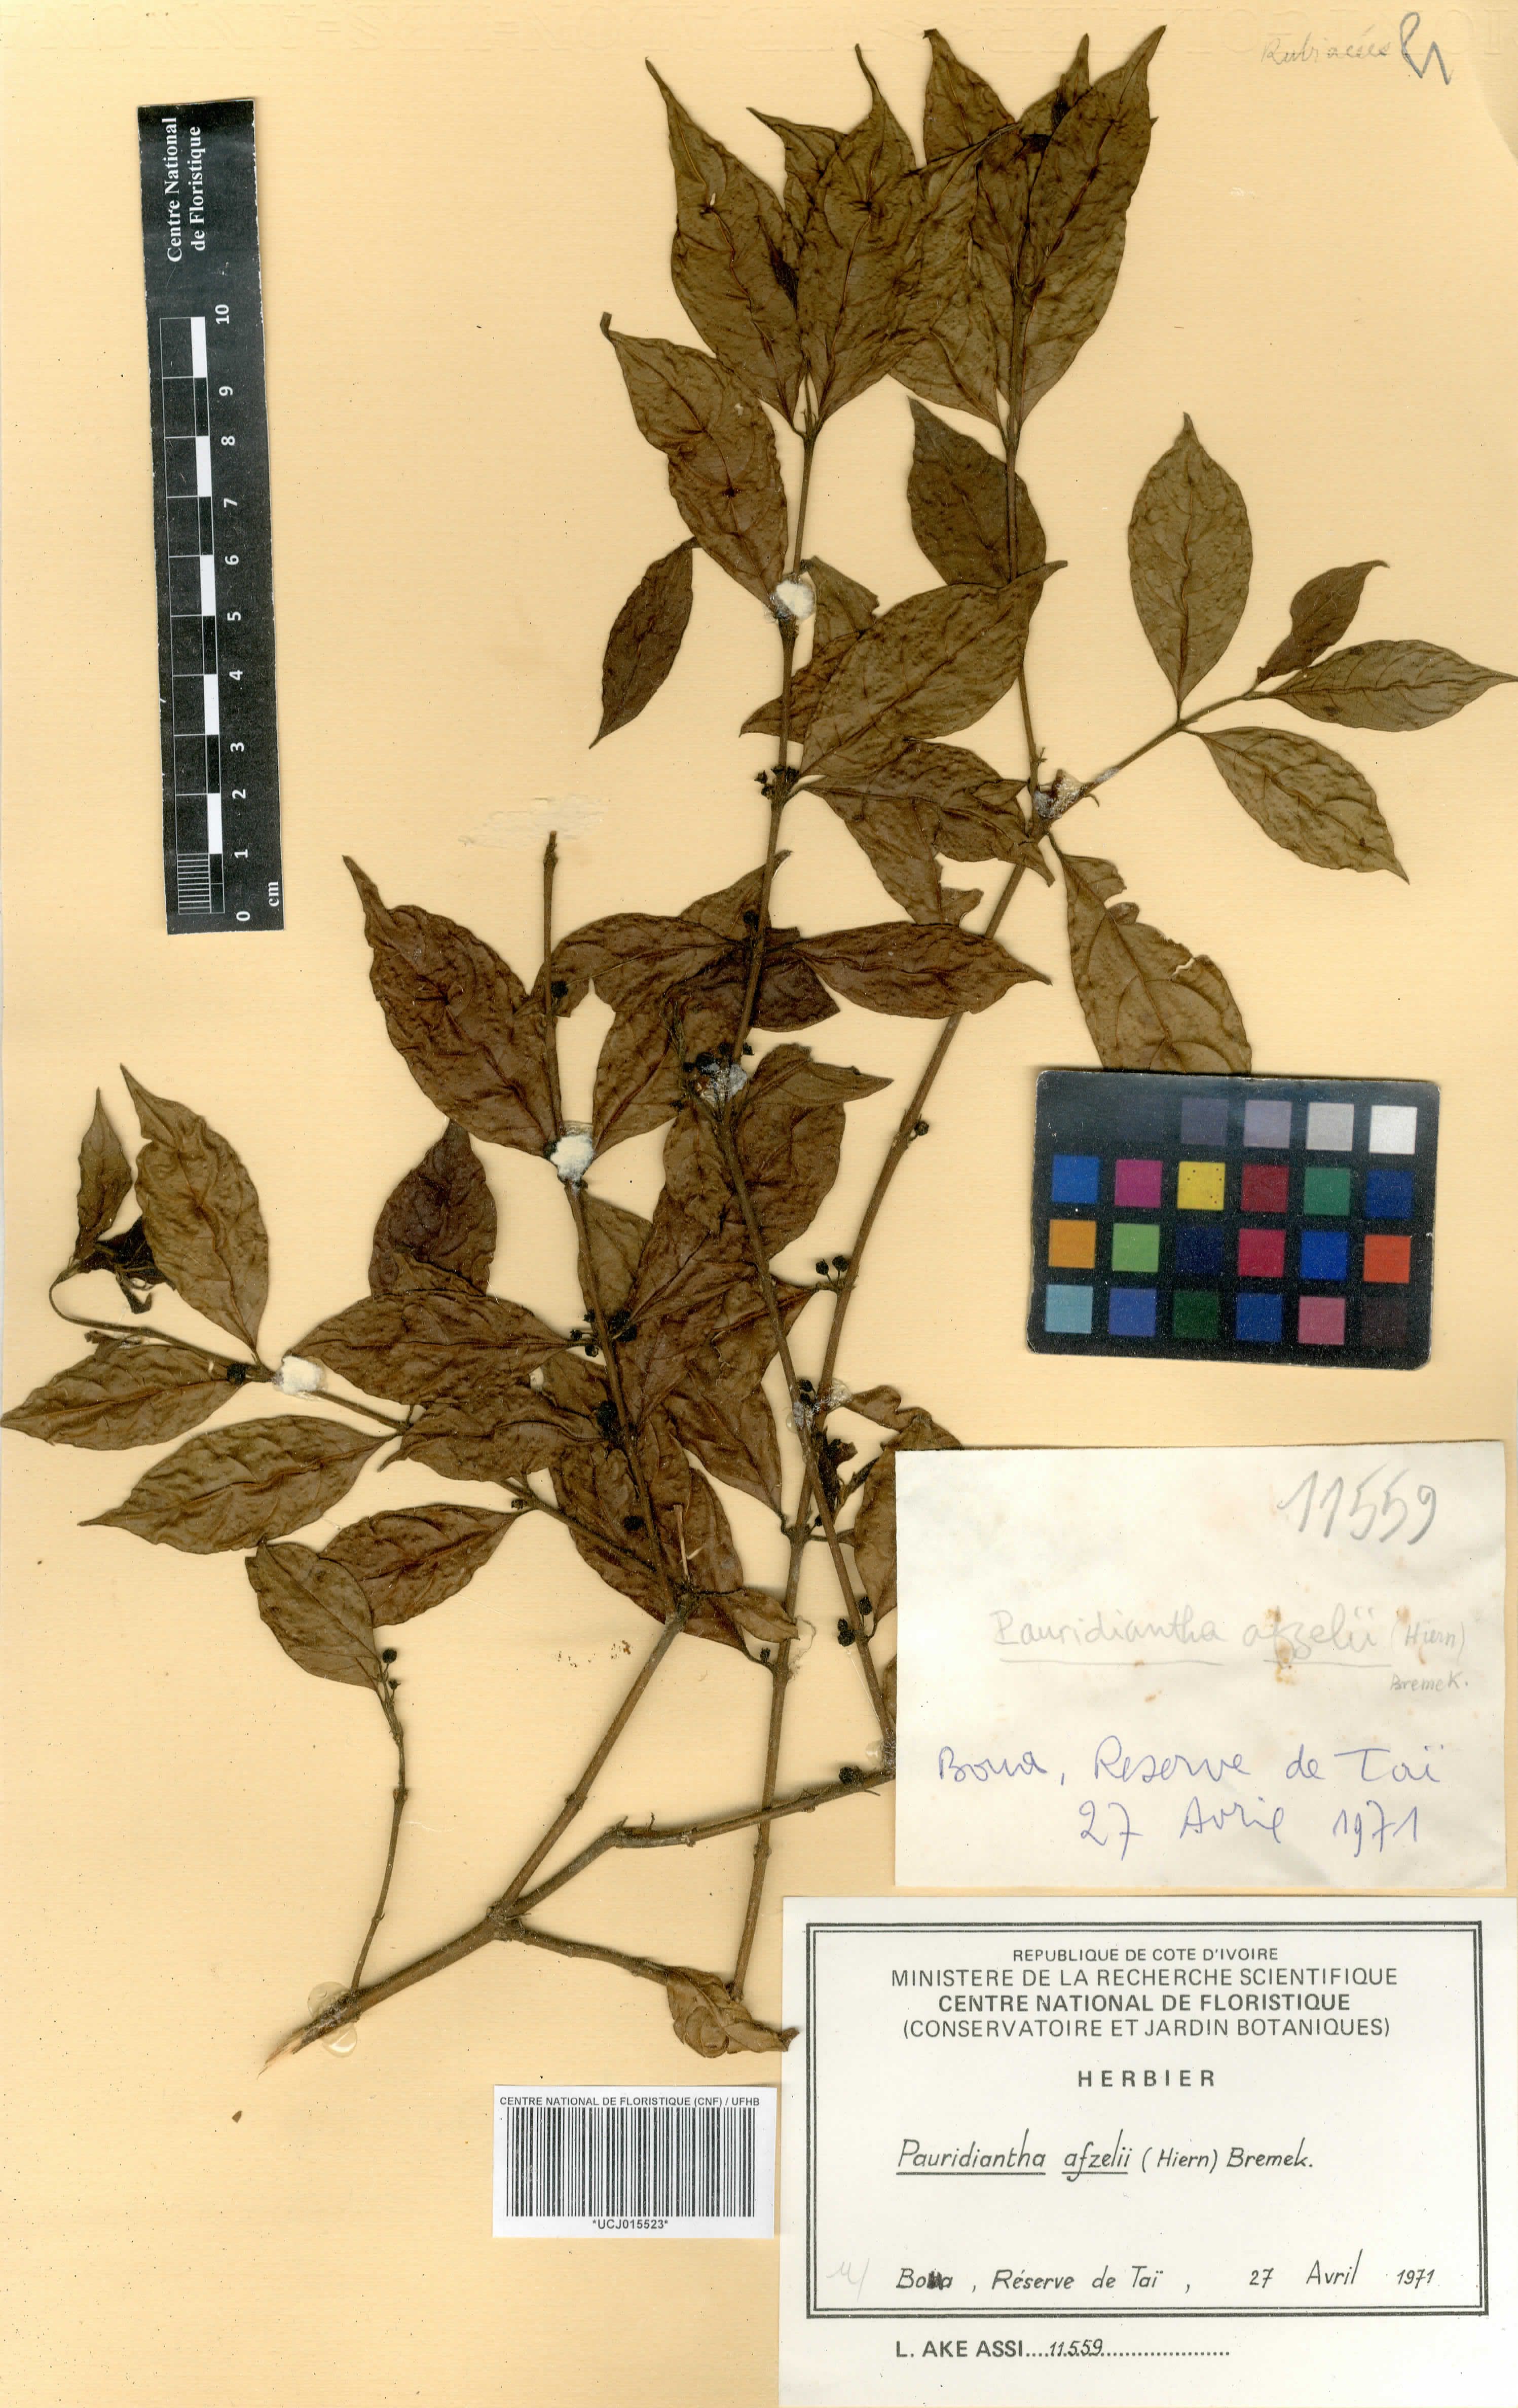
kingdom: Plantae
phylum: Tracheophyta
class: Magnoliopsida
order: Gentianales
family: Rubiaceae
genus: Pauridiantha
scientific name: Pauridiantha afzelii
